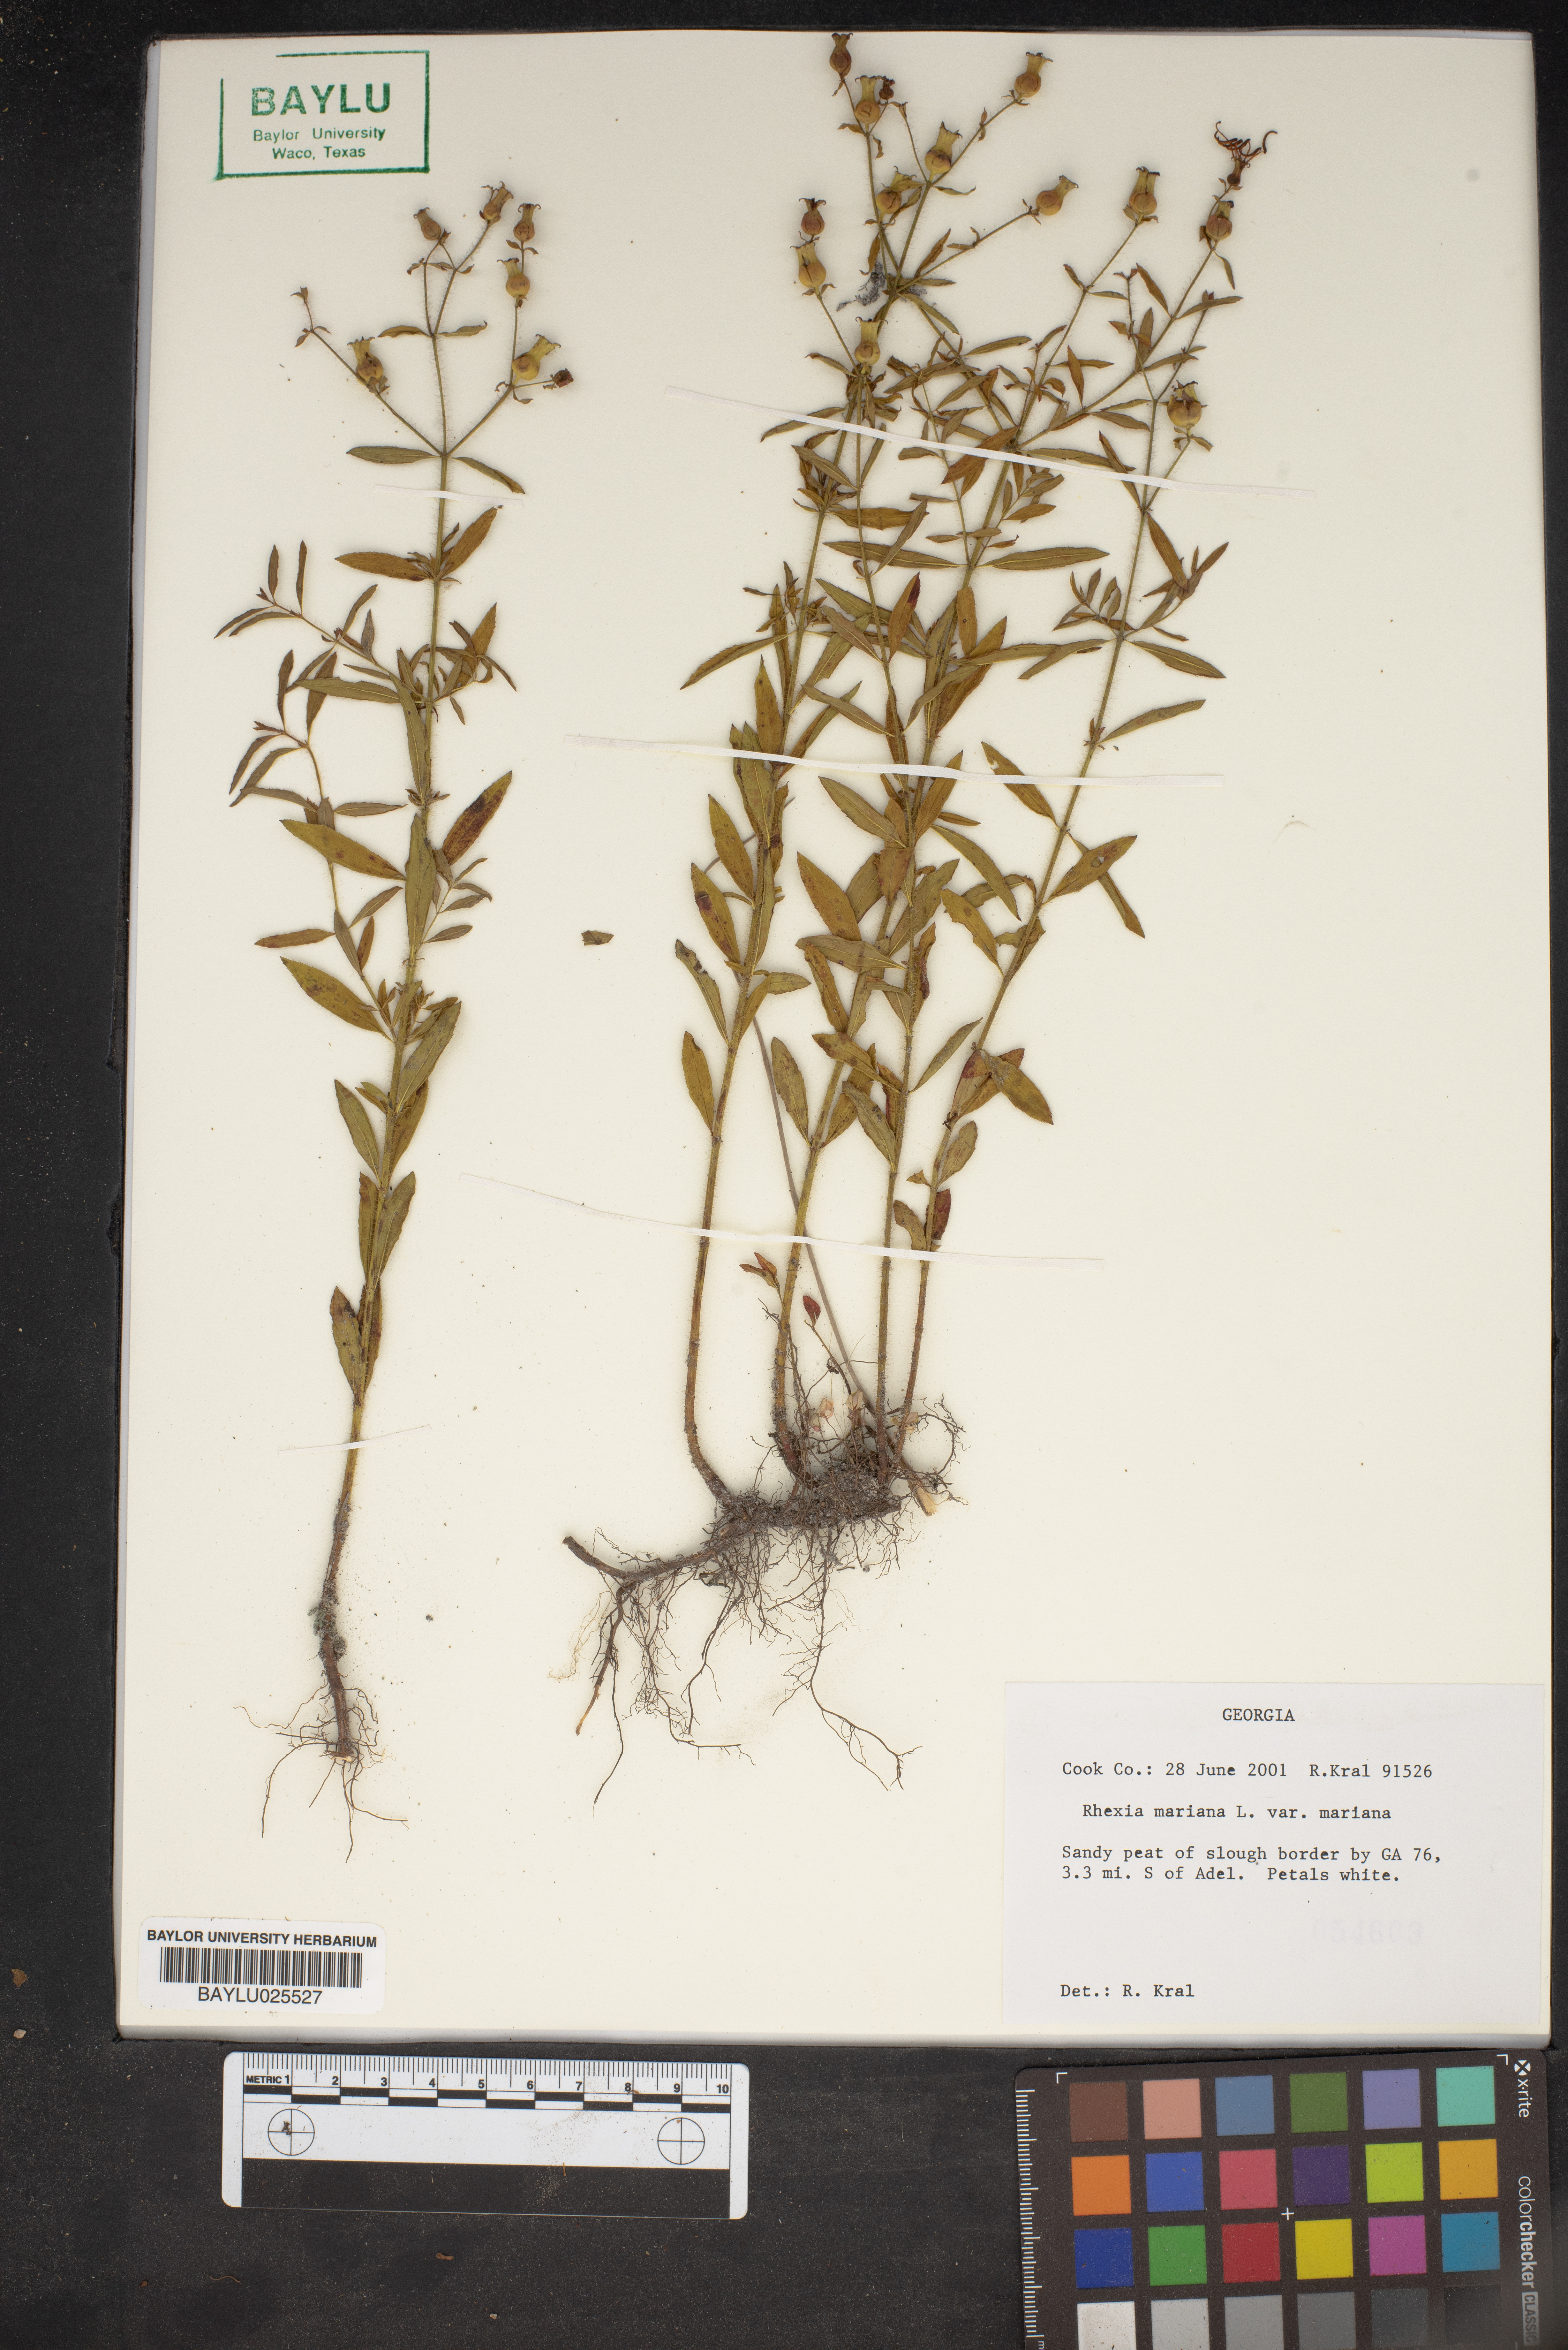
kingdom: Plantae
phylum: Tracheophyta
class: Magnoliopsida
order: Myrtales
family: Melastomataceae
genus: Rhexia
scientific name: Rhexia mariana
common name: Dull meadow-pitcher
